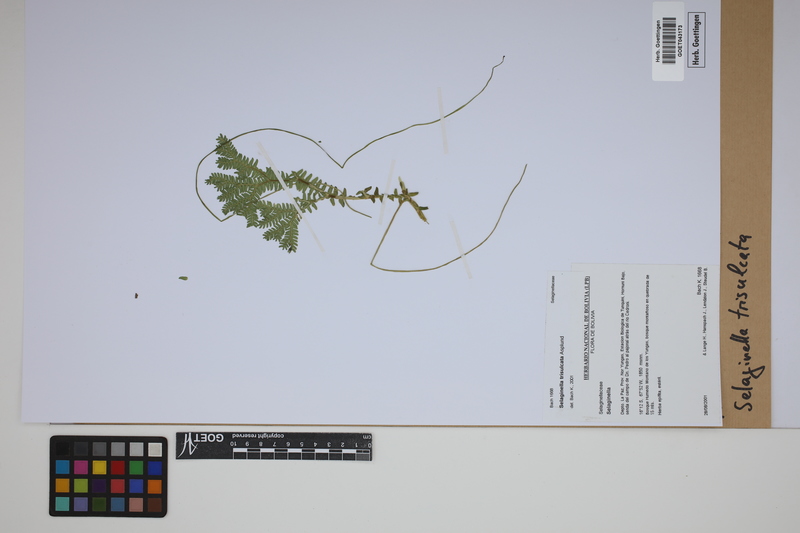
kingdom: Plantae
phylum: Tracheophyta
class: Lycopodiopsida
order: Selaginellales
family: Selaginellaceae
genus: Selaginella
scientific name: Selaginella trisulcata
